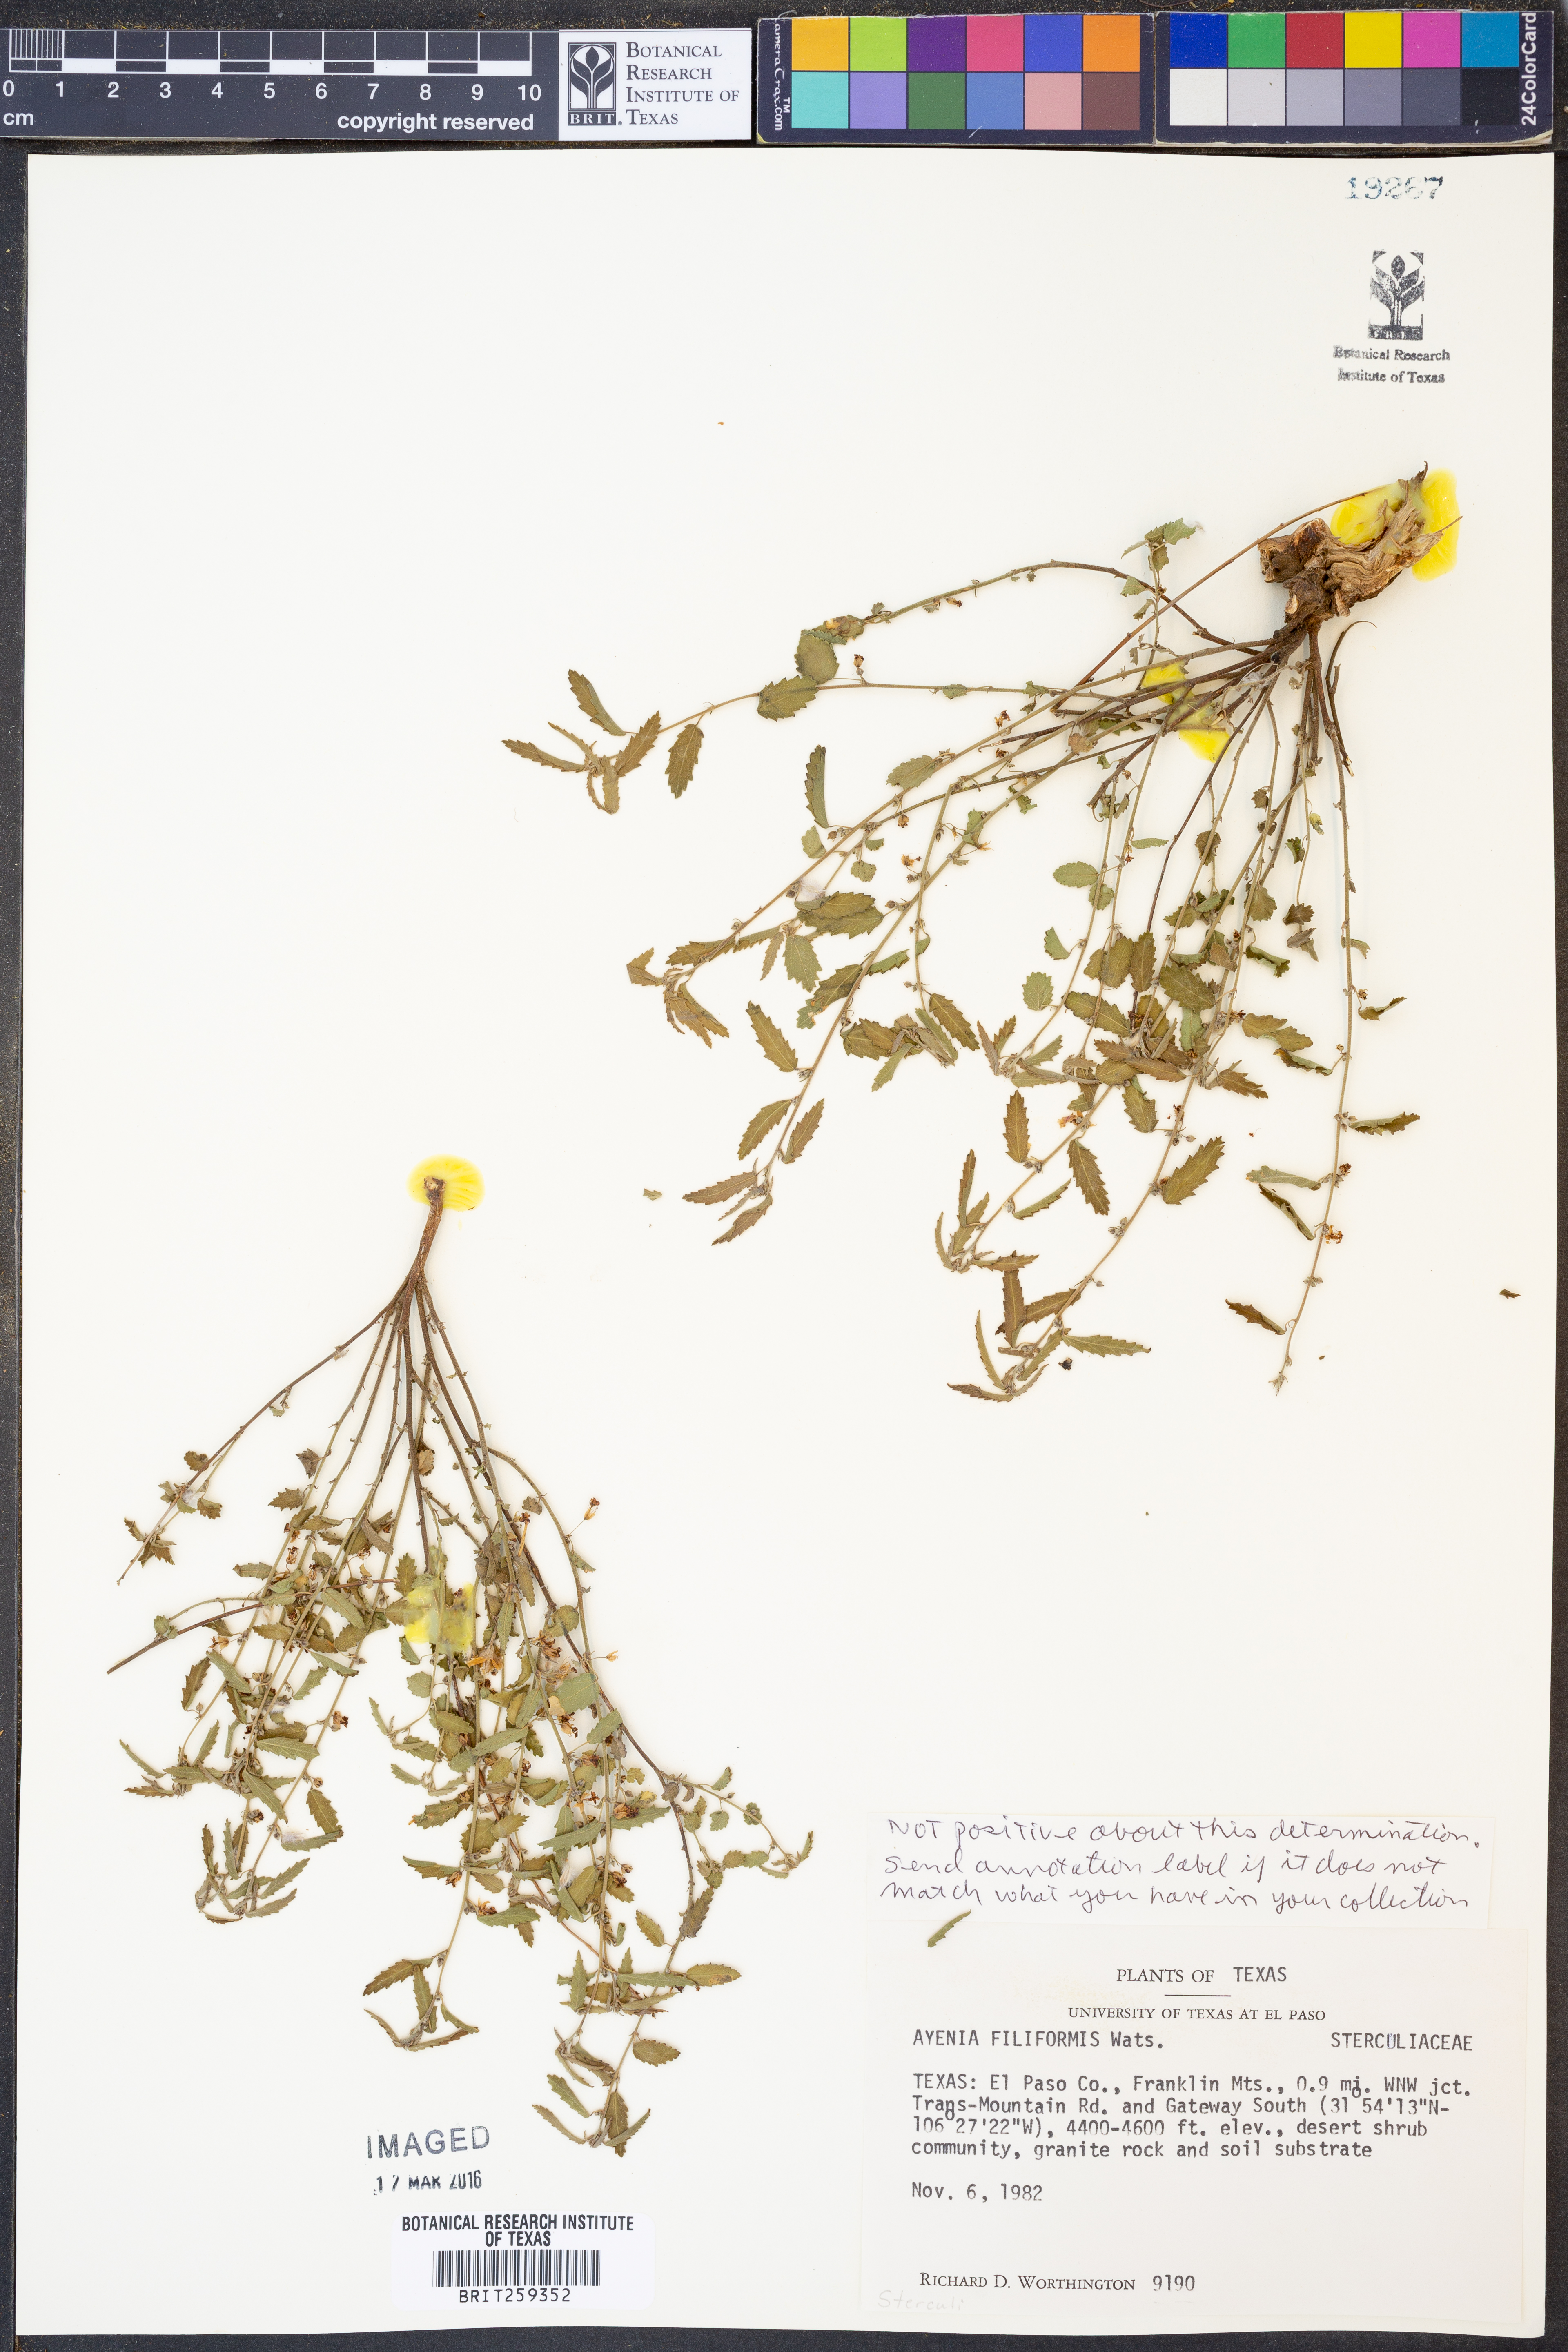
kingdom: Plantae
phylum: Tracheophyta
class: Magnoliopsida
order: Malvales
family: Malvaceae
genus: Ayenia
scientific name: Ayenia filiformis
